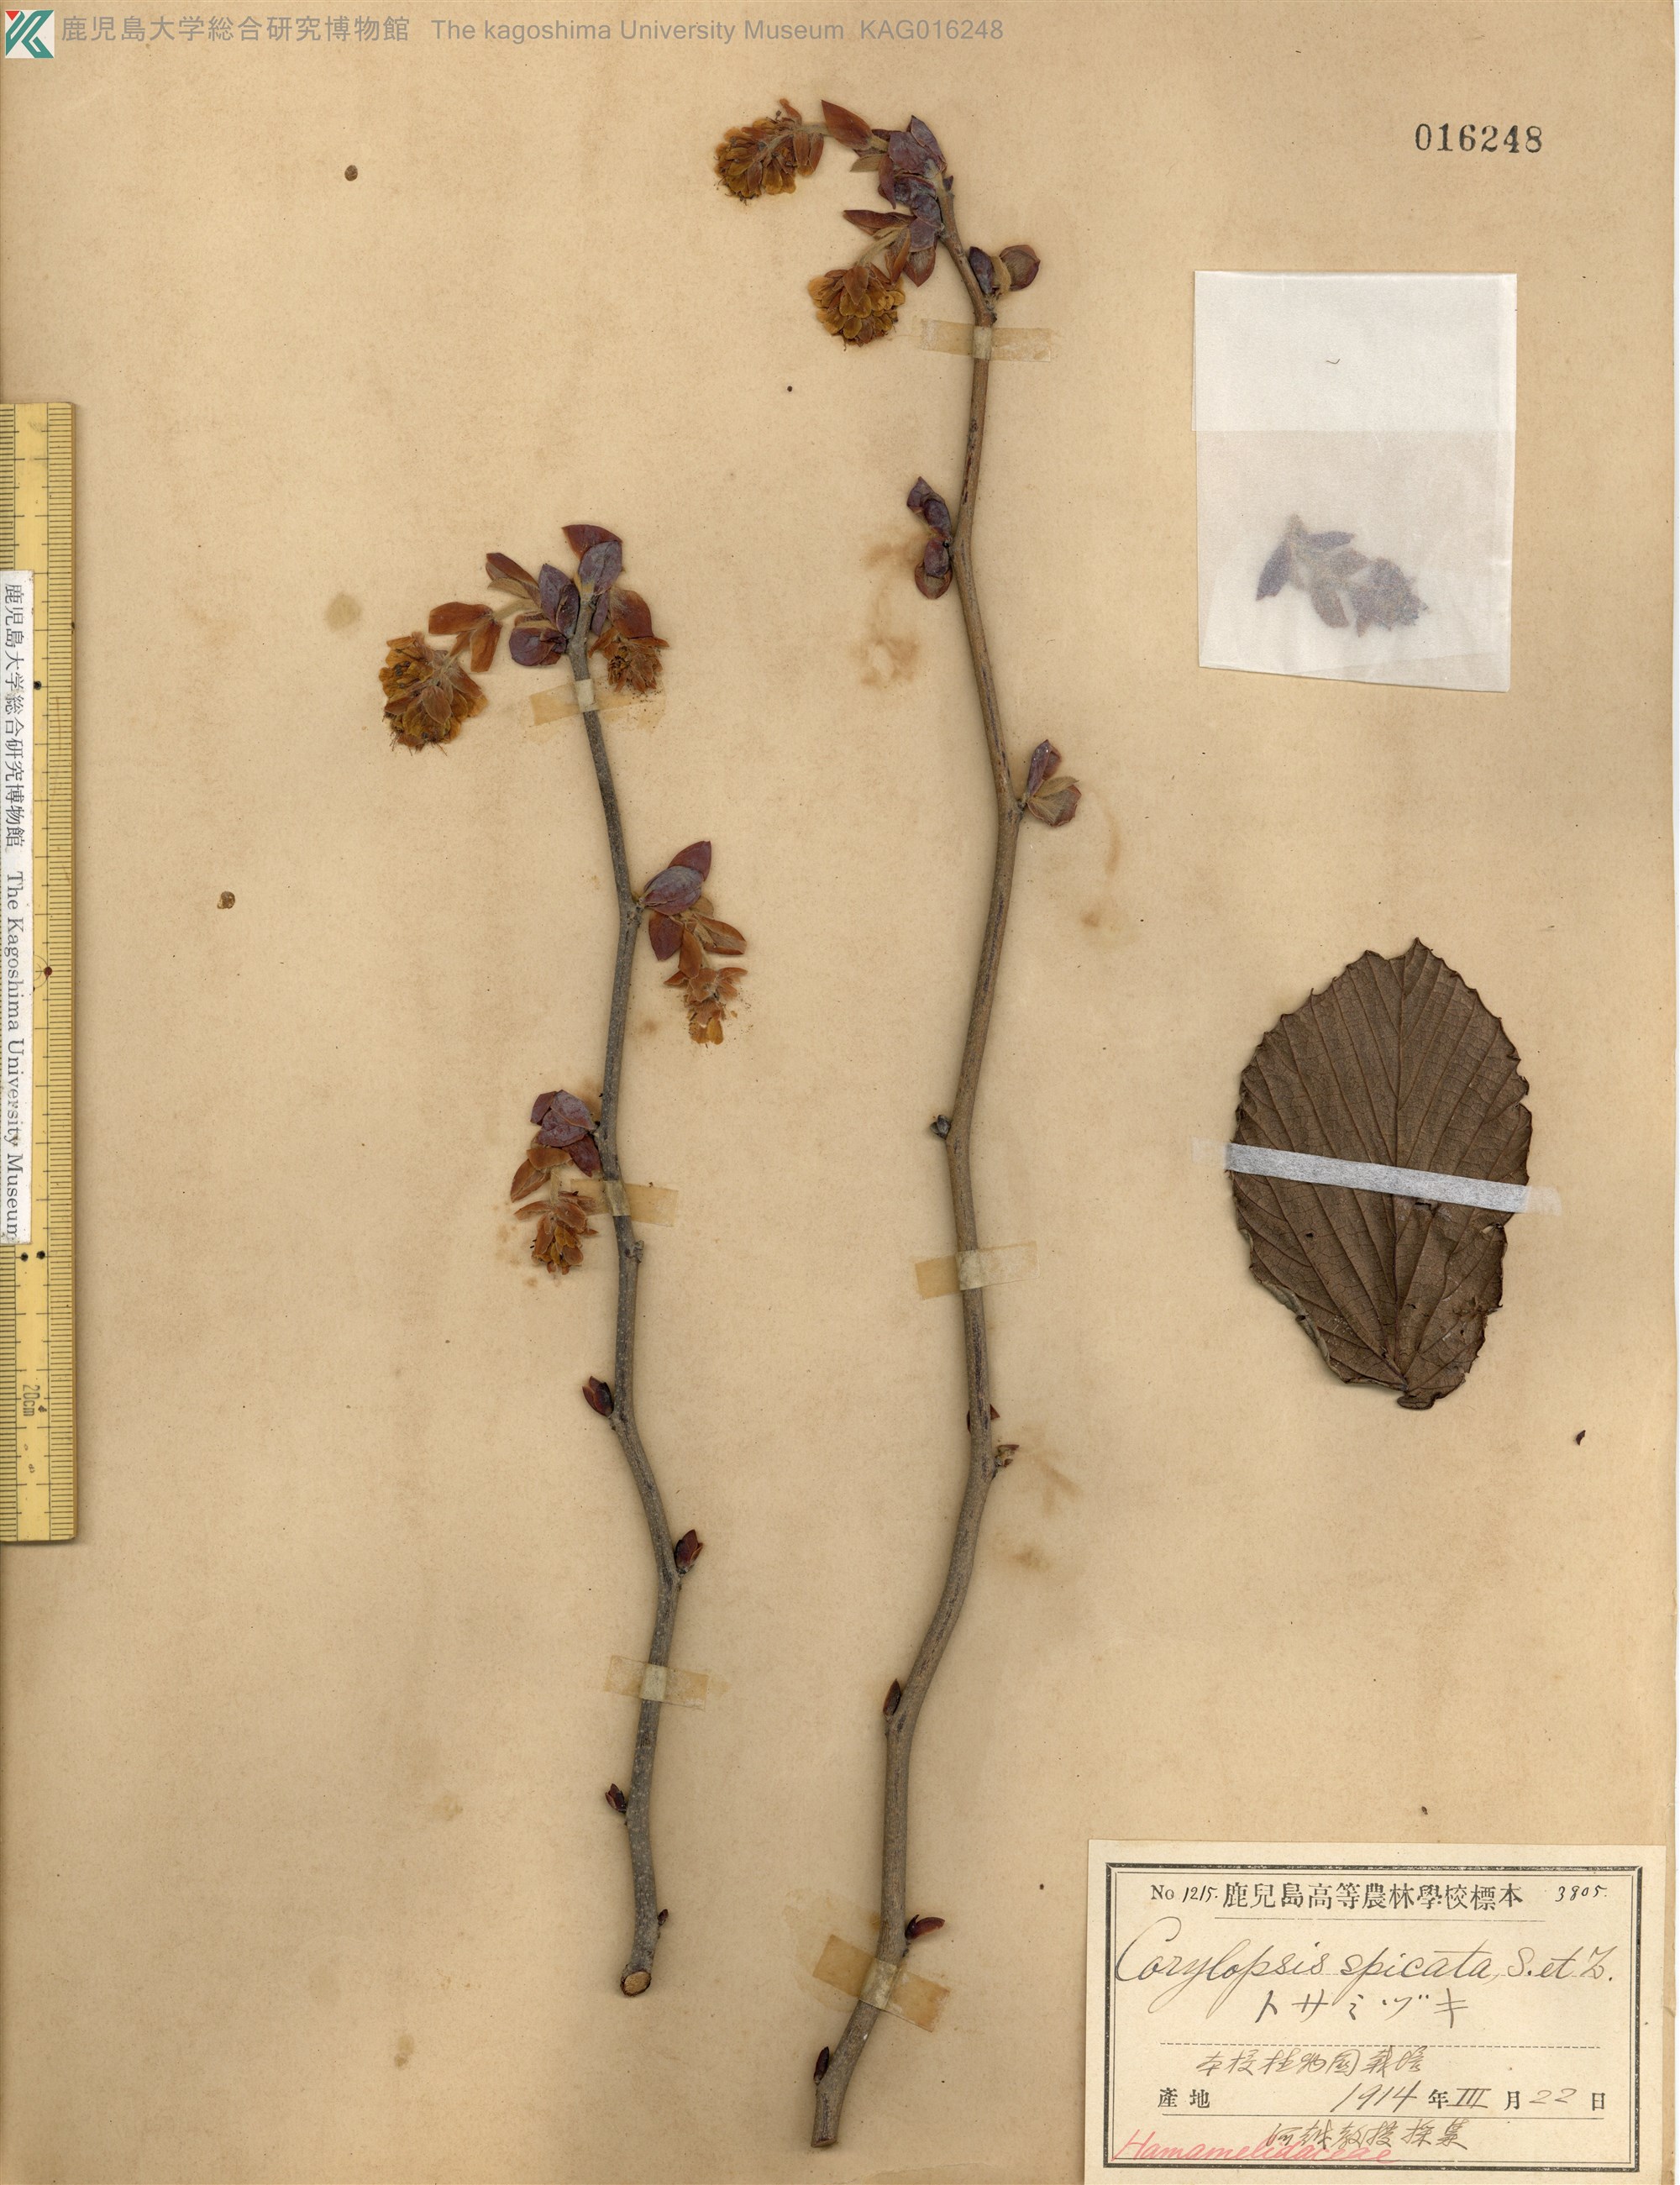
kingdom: Plantae
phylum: Tracheophyta
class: Magnoliopsida
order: Saxifragales
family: Hamamelidaceae
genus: Corylopsis
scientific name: Corylopsis spicata
